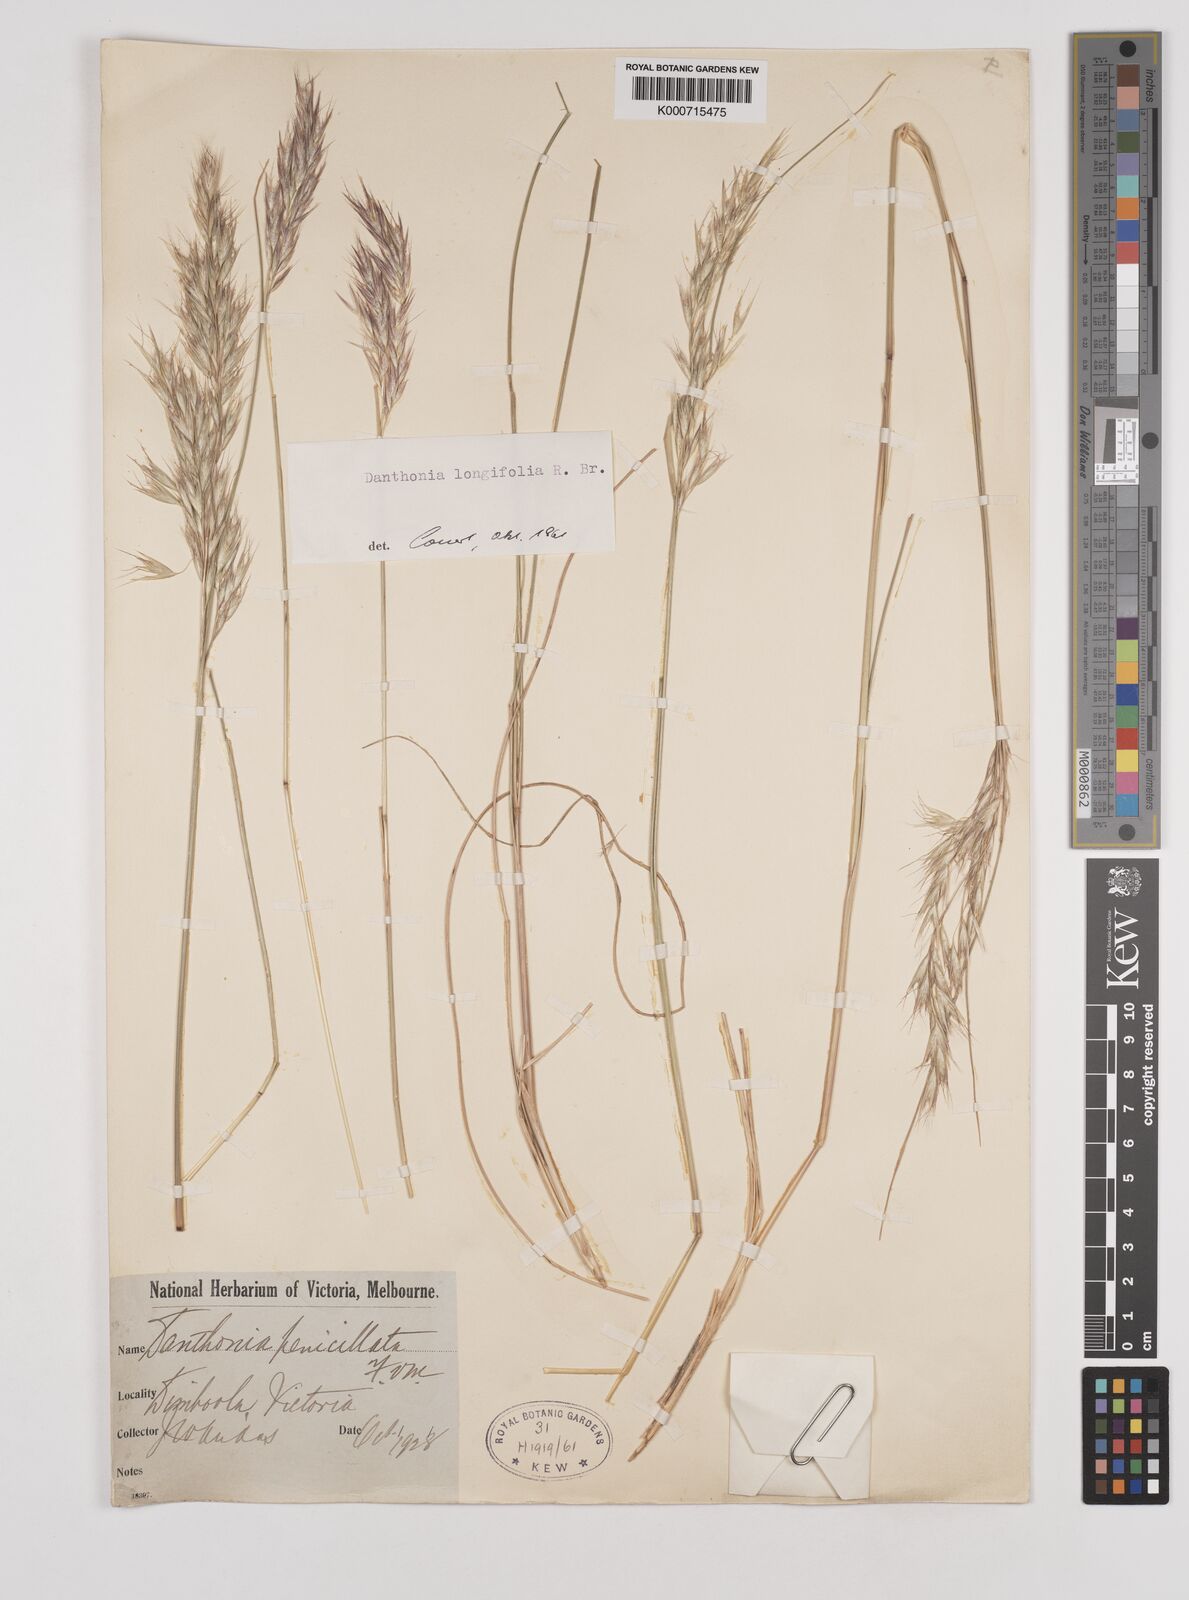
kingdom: Plantae
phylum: Tracheophyta
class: Liliopsida
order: Poales
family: Poaceae
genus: Rytidosperma
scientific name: Rytidosperma longifolium
